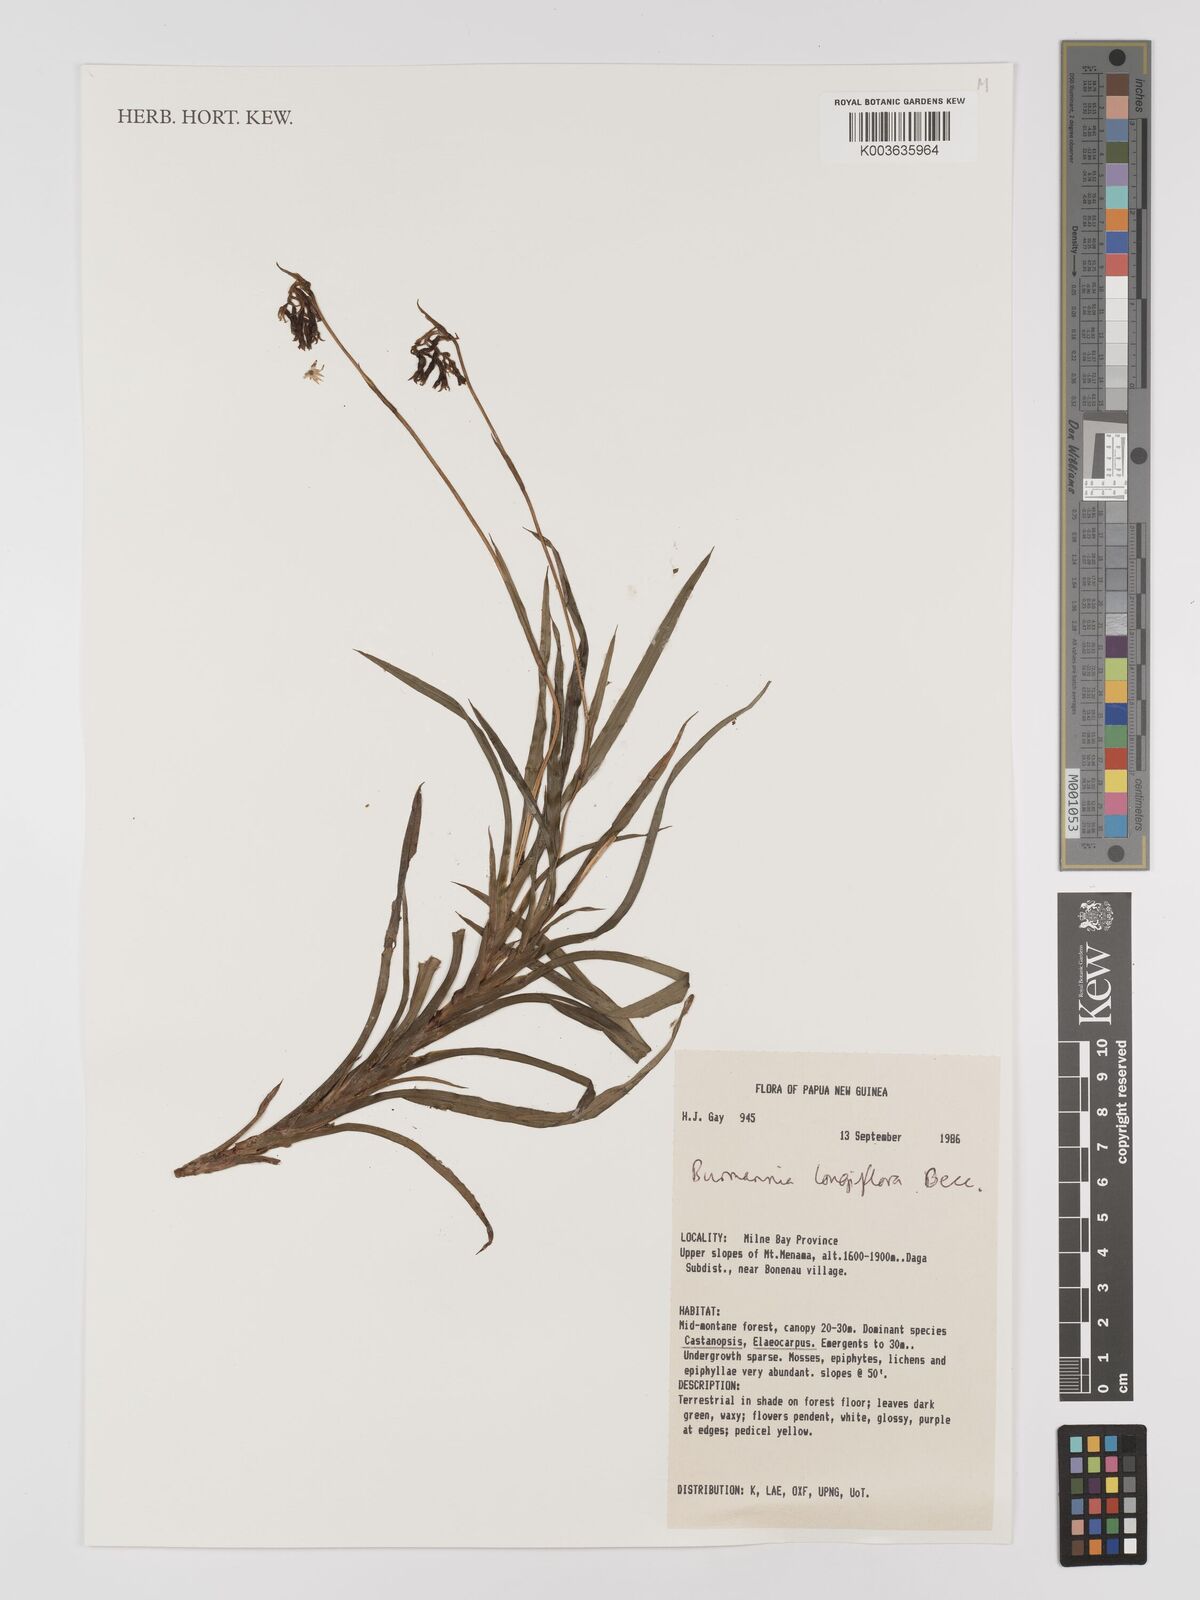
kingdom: Plantae
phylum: Tracheophyta
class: Liliopsida
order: Dioscoreales
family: Burmanniaceae
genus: Burmannia
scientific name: Burmannia longifolia
